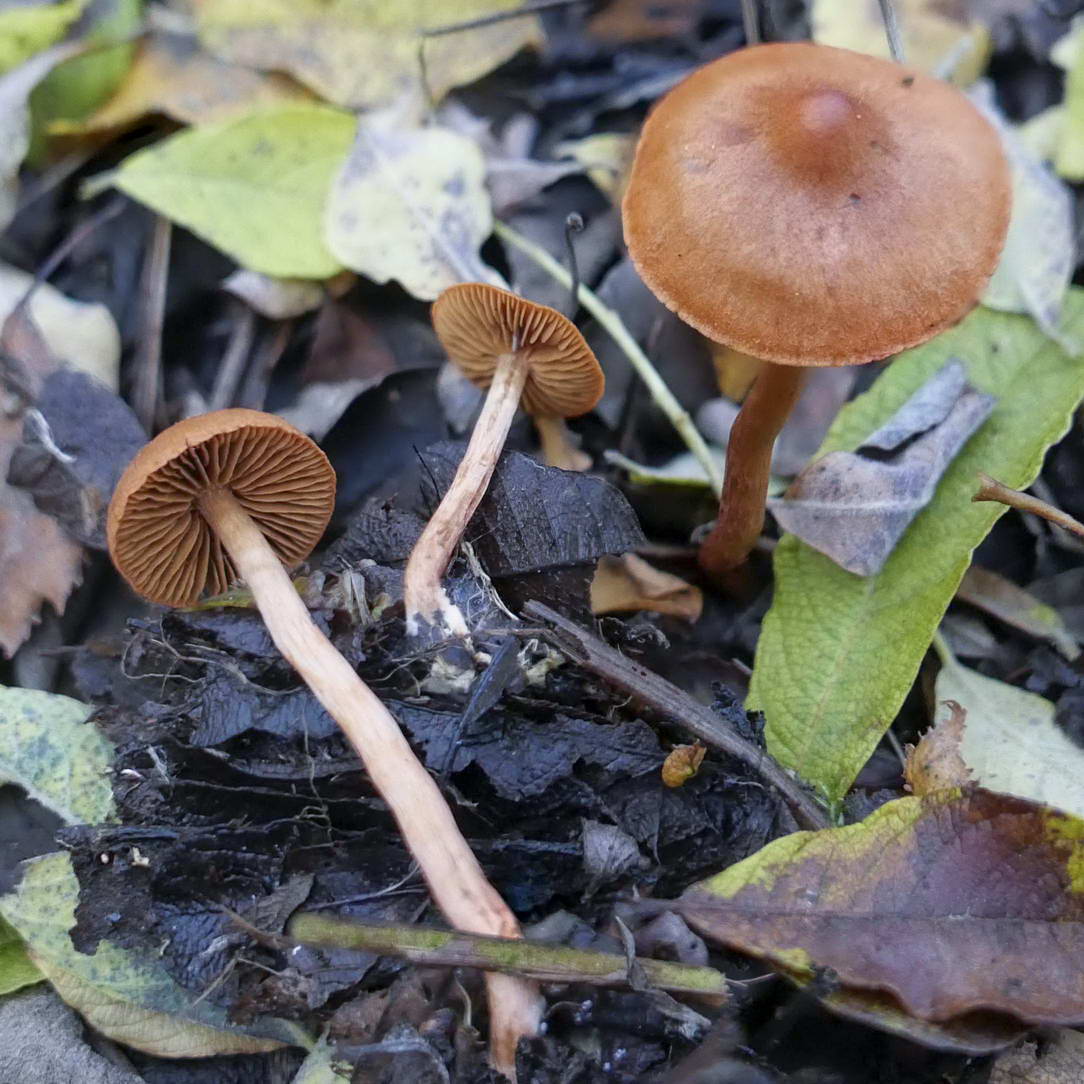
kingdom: Fungi
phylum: Basidiomycota
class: Agaricomycetes
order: Agaricales
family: Cortinariaceae
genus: Cortinarius
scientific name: Cortinarius uliginosus
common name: mose-slørhat
